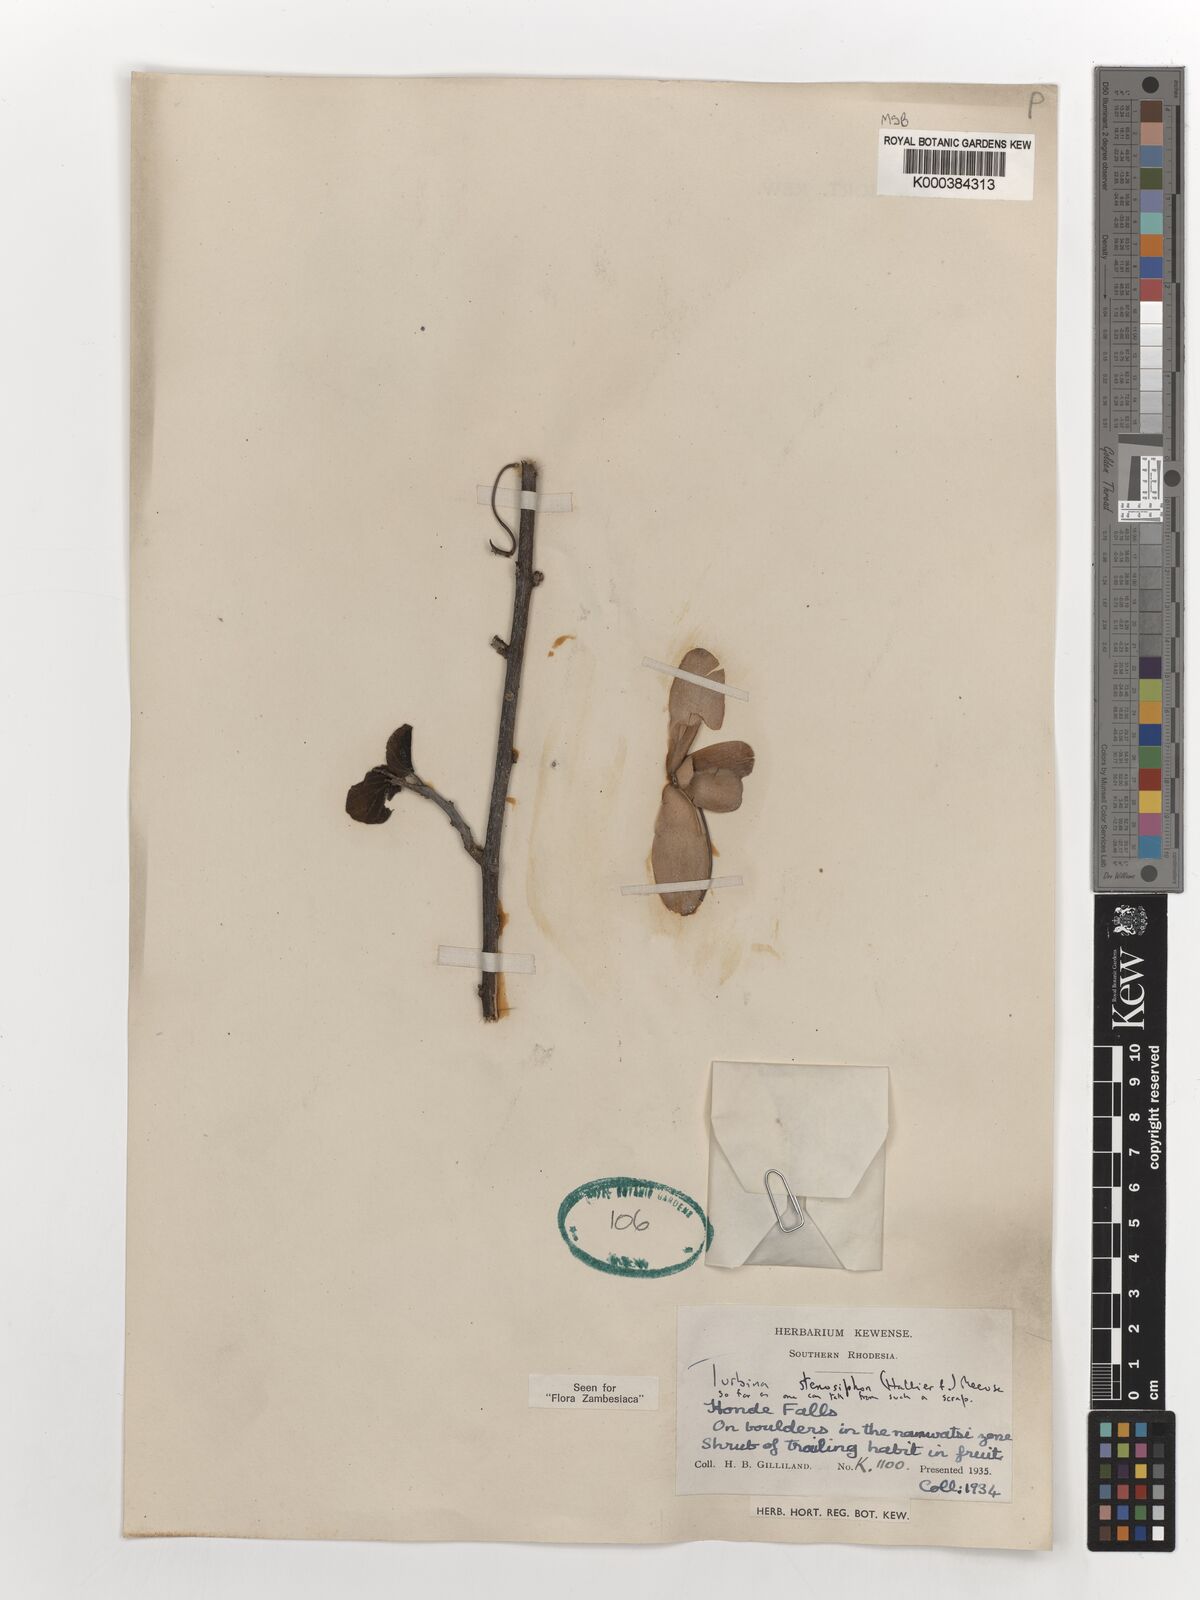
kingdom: Plantae
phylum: Tracheophyta
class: Magnoliopsida
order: Solanales
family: Convolvulaceae
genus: Ipomoea
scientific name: Ipomoea stenosiphon
